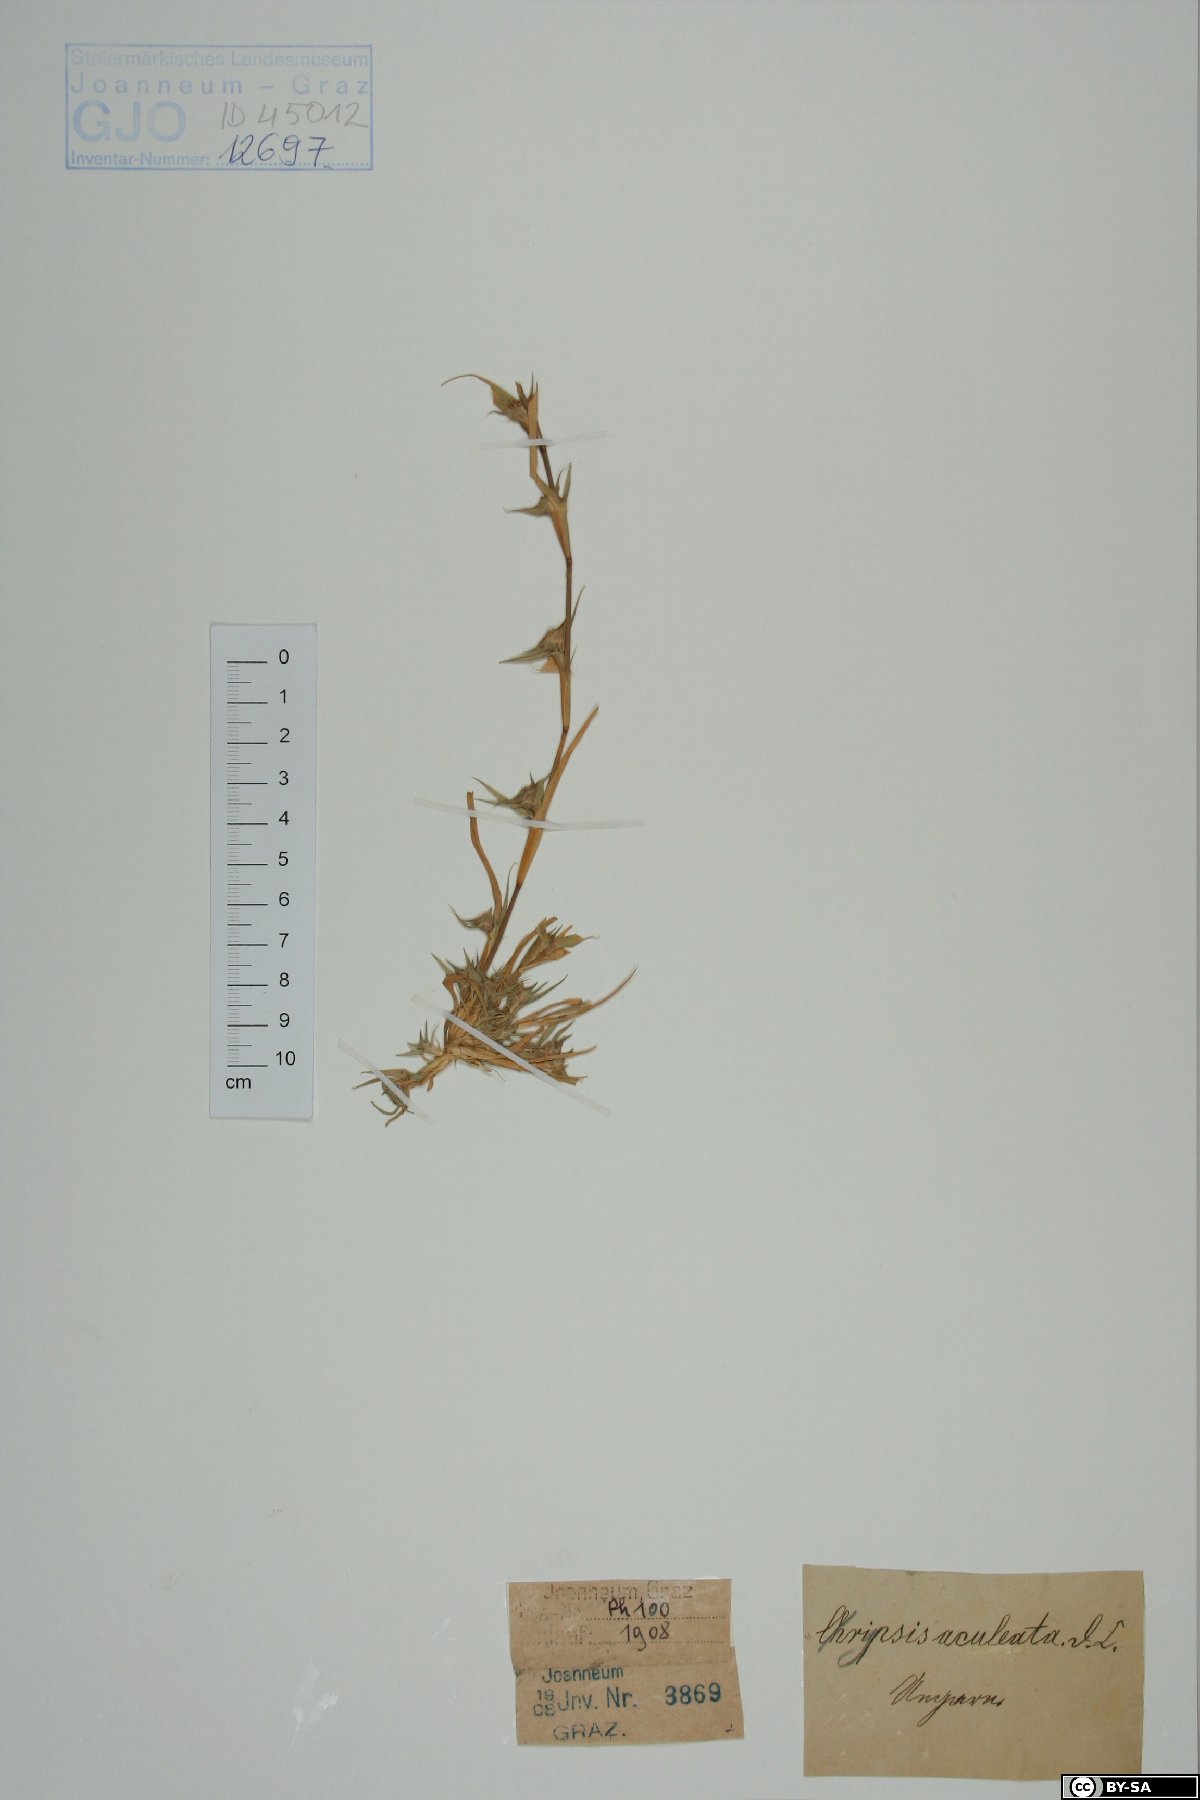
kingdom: Plantae
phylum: Tracheophyta
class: Liliopsida
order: Poales
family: Poaceae
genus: Sporobolus
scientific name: Sporobolus aculeatus
